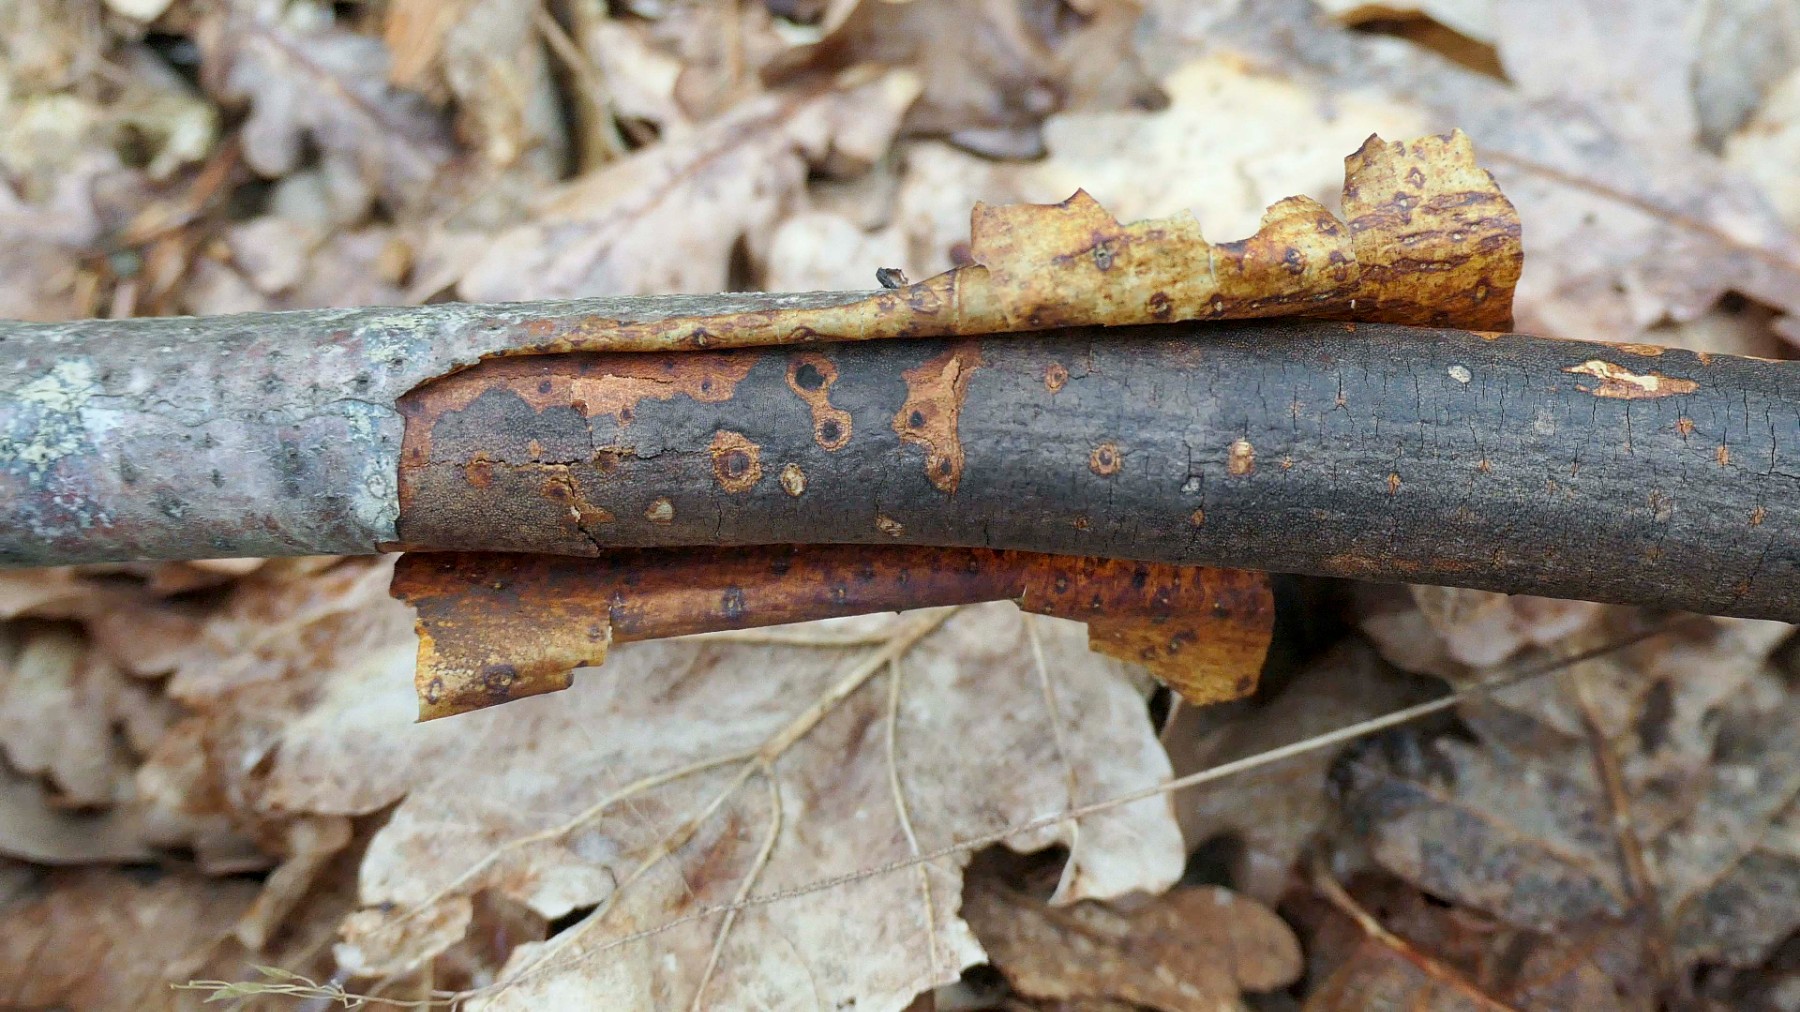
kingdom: Fungi
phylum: Ascomycota
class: Sordariomycetes
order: Xylariales
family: Diatrypaceae
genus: Diatrype
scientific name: Diatrype decorticata
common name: barksprænger-kulskorpe
